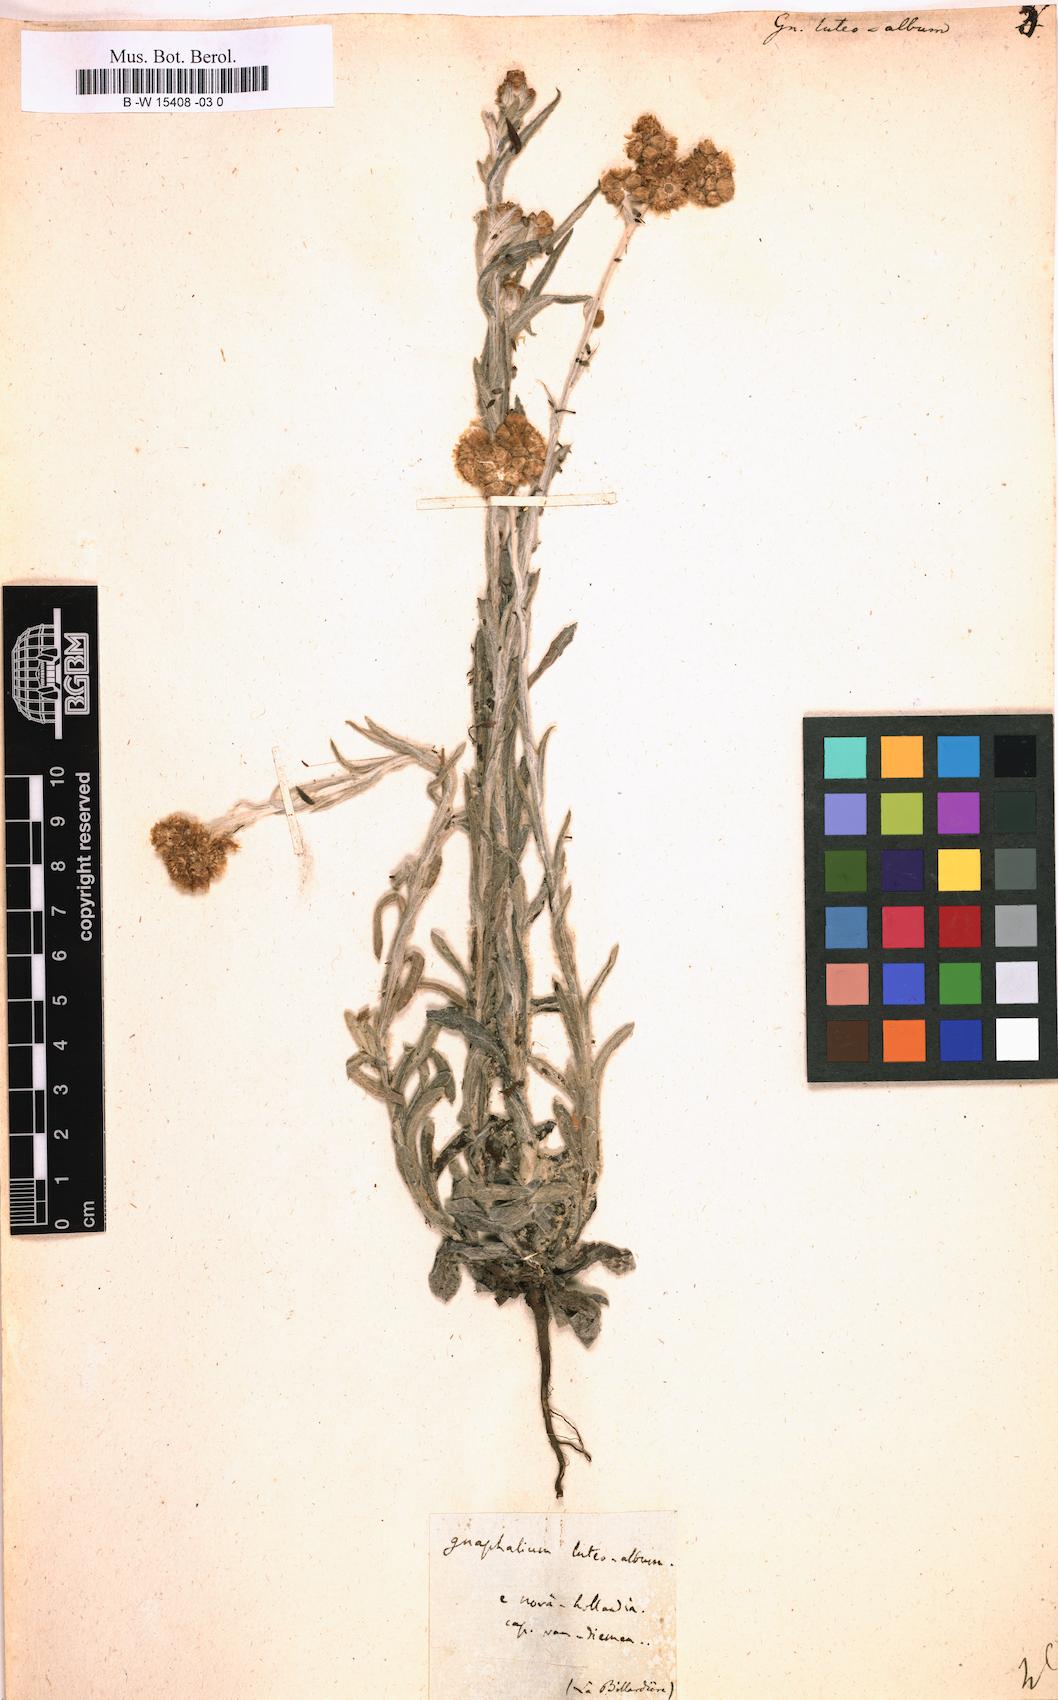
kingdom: Plantae
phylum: Tracheophyta
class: Magnoliopsida
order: Asterales
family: Asteraceae
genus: Helichrysum
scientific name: Helichrysum luteoalbum
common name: Daisy
